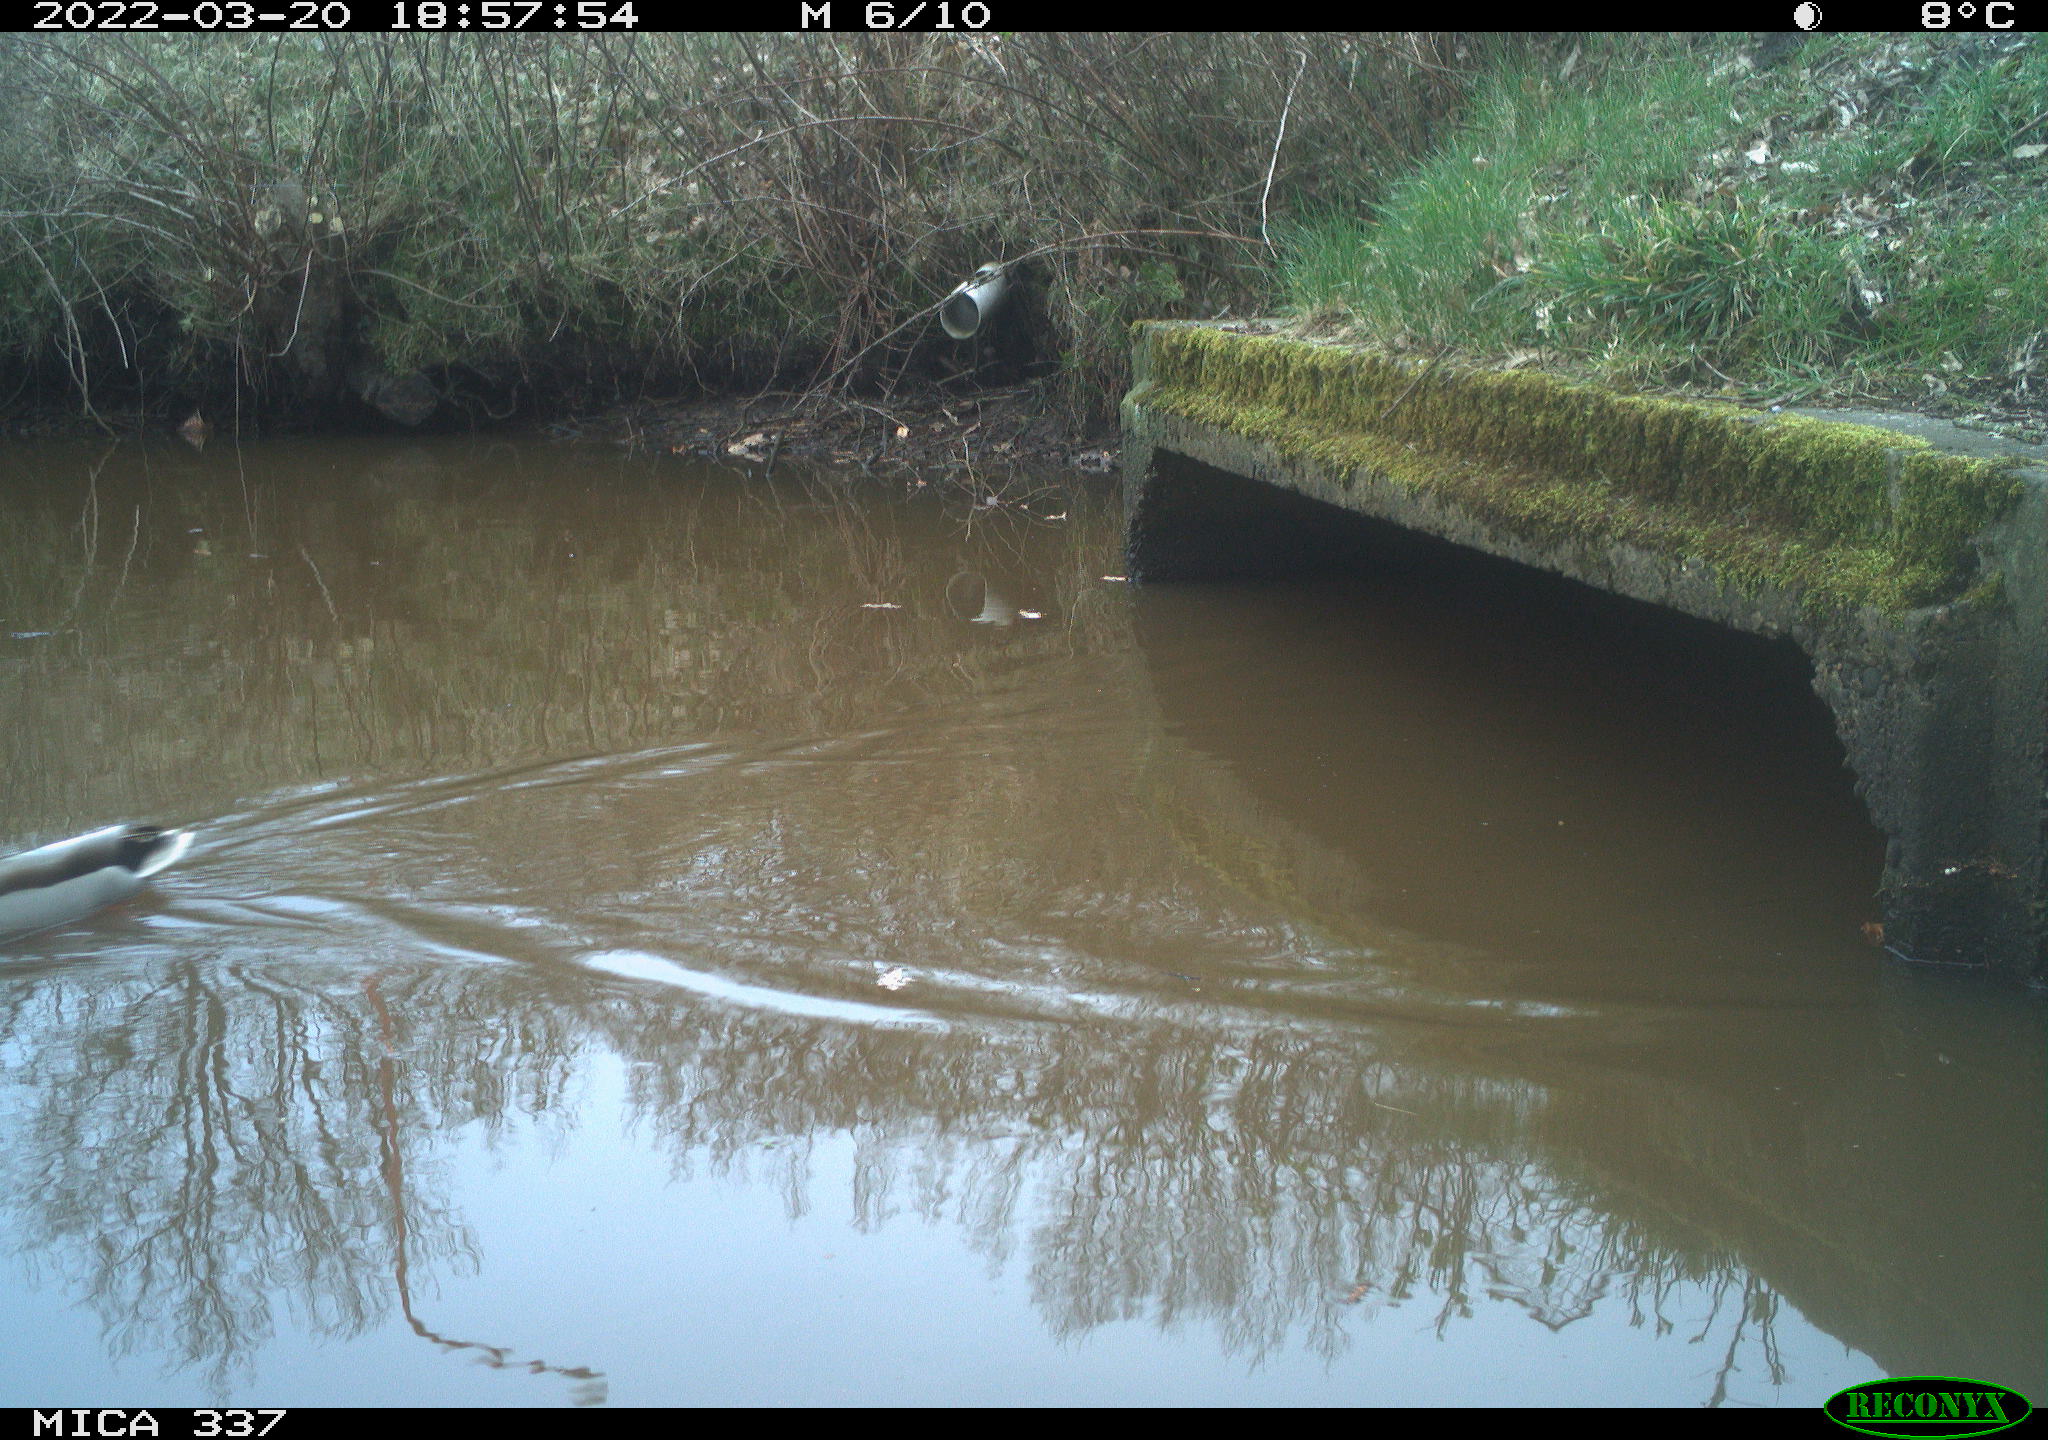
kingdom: Animalia
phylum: Chordata
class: Aves
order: Anseriformes
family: Anatidae
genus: Anas
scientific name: Anas platyrhynchos
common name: Mallard
